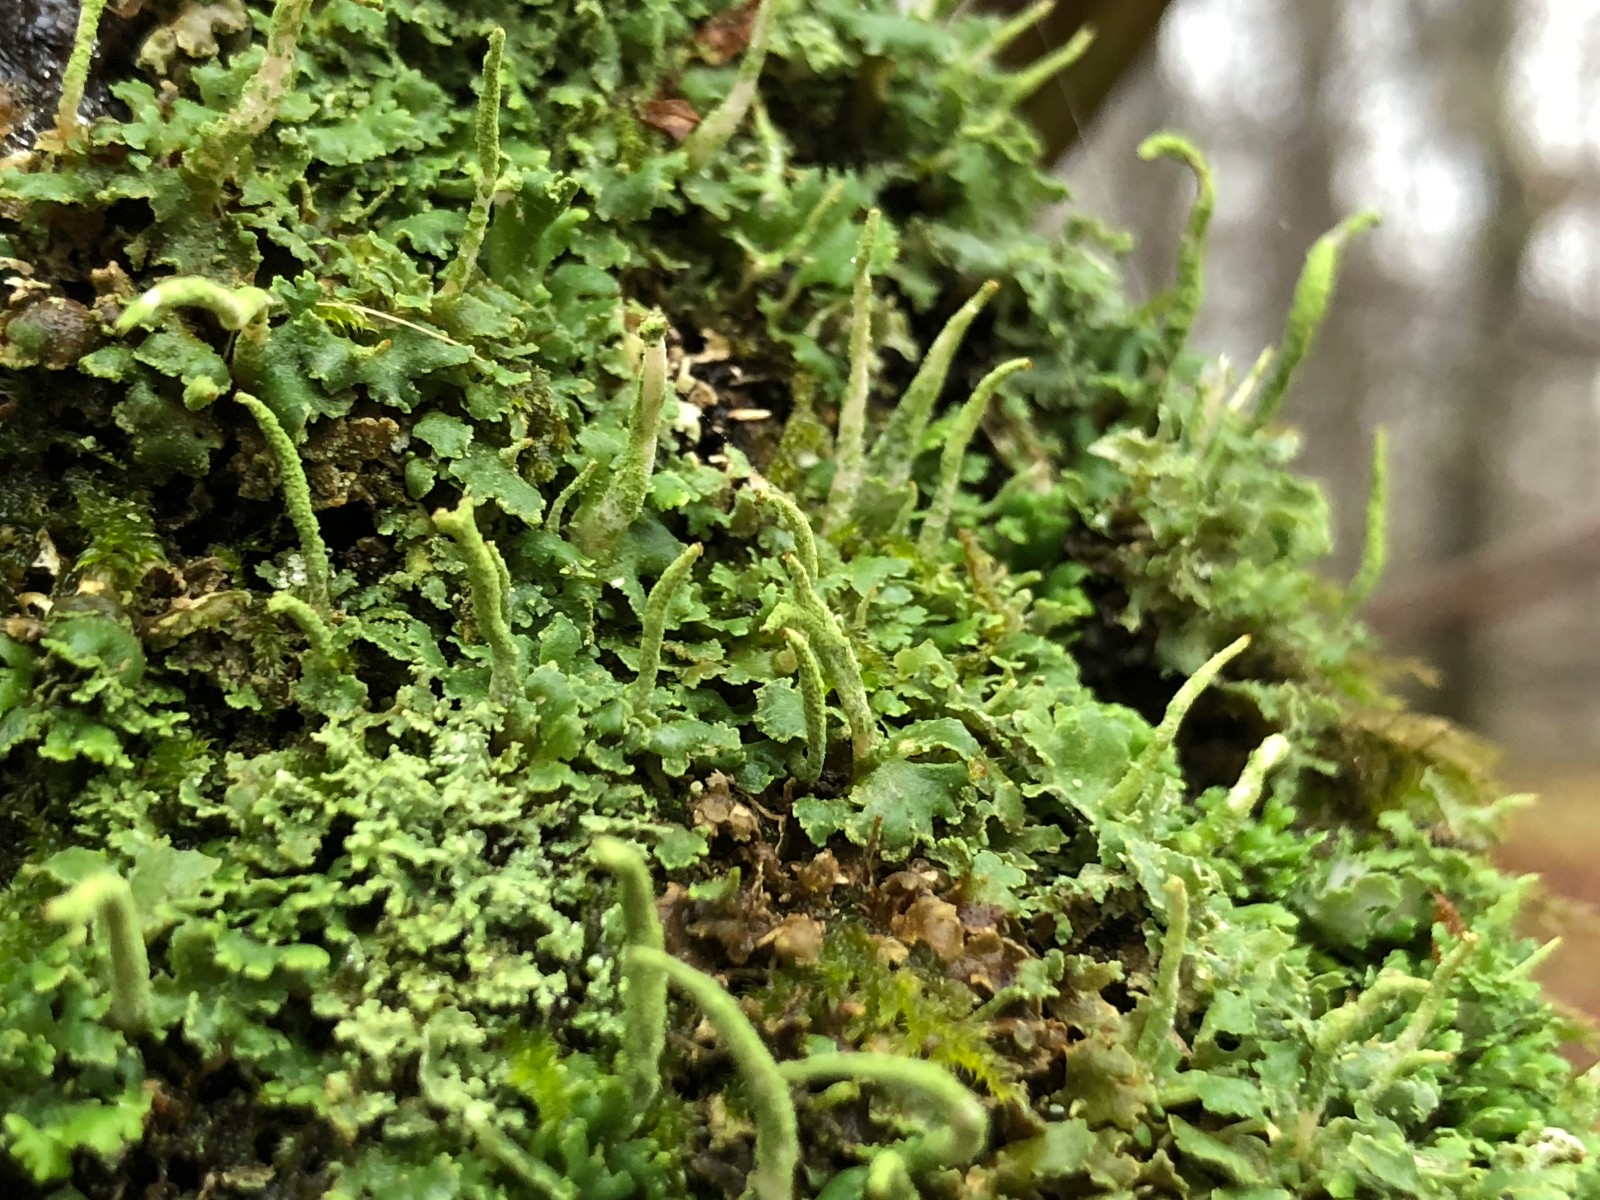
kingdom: Fungi
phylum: Ascomycota
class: Lecanoromycetes
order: Lecanorales
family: Cladoniaceae
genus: Cladonia
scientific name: Cladonia coniocraea
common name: træfods-bægerlav
